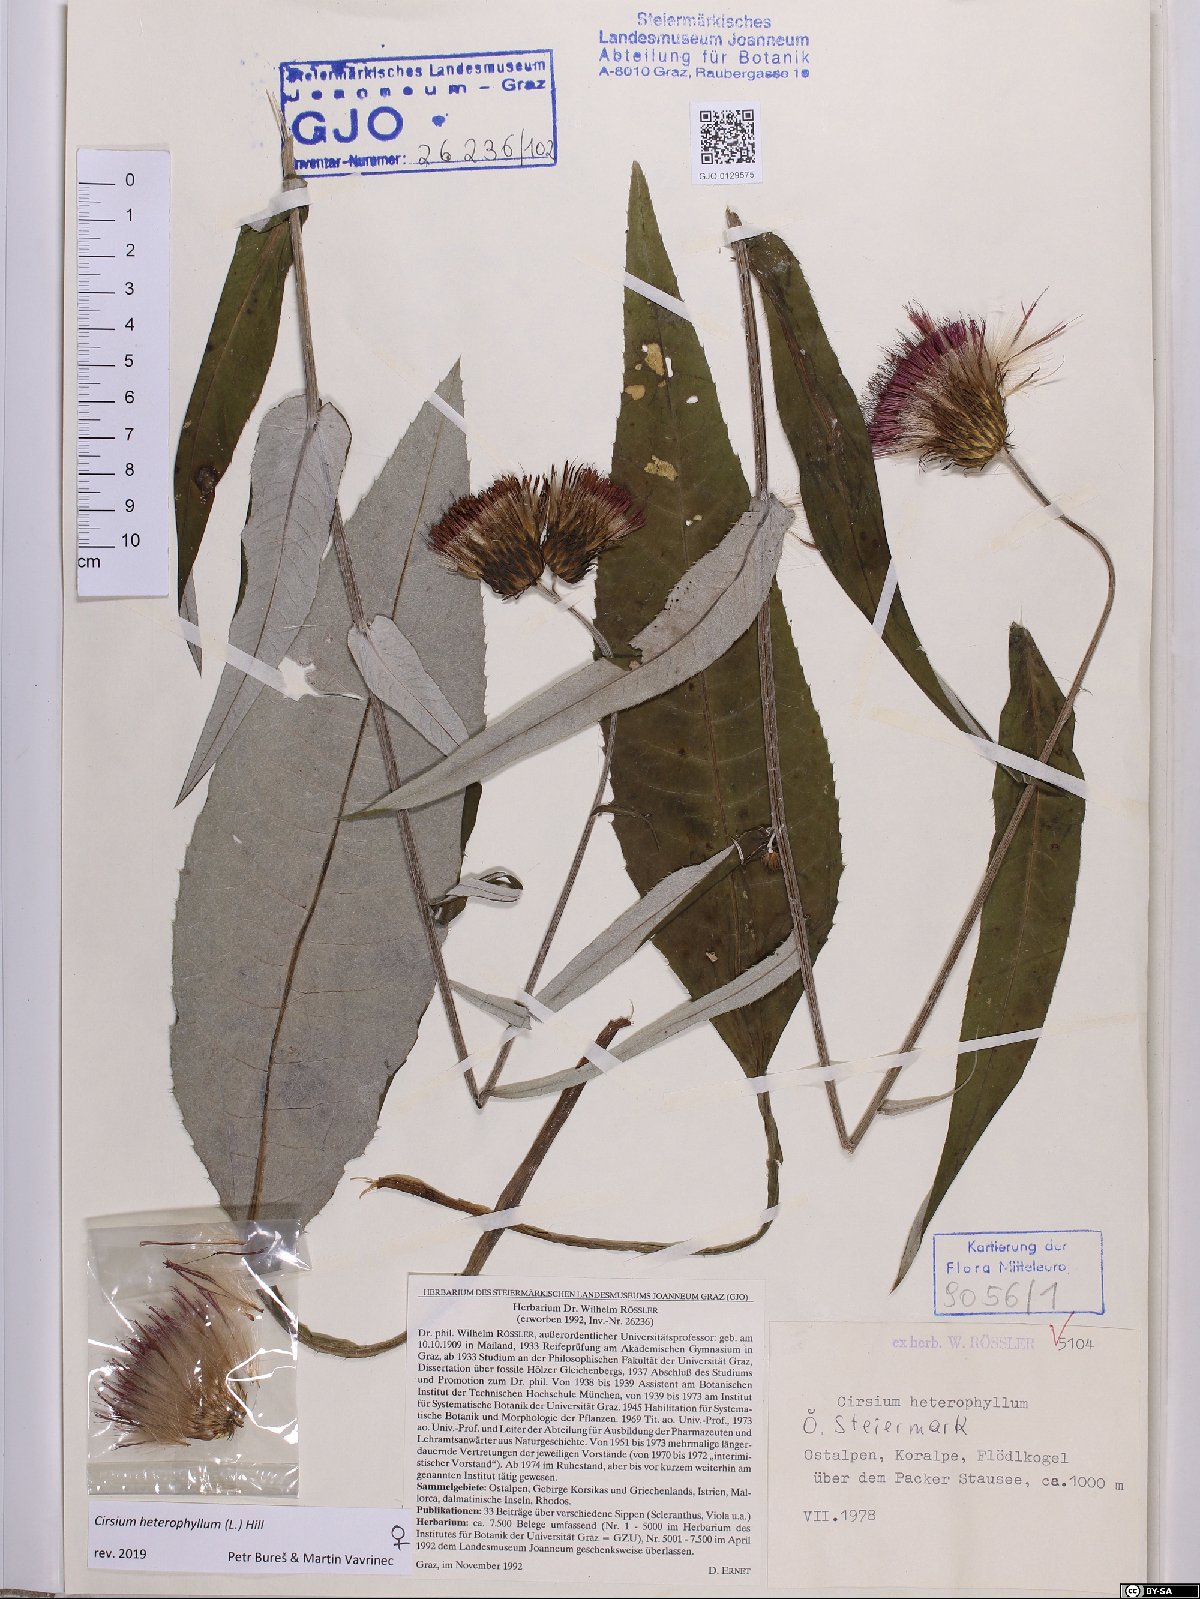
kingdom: Plantae
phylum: Tracheophyta
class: Magnoliopsida
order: Asterales
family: Asteraceae
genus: Cirsium
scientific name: Cirsium heterophyllum
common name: Melancholy thistle
